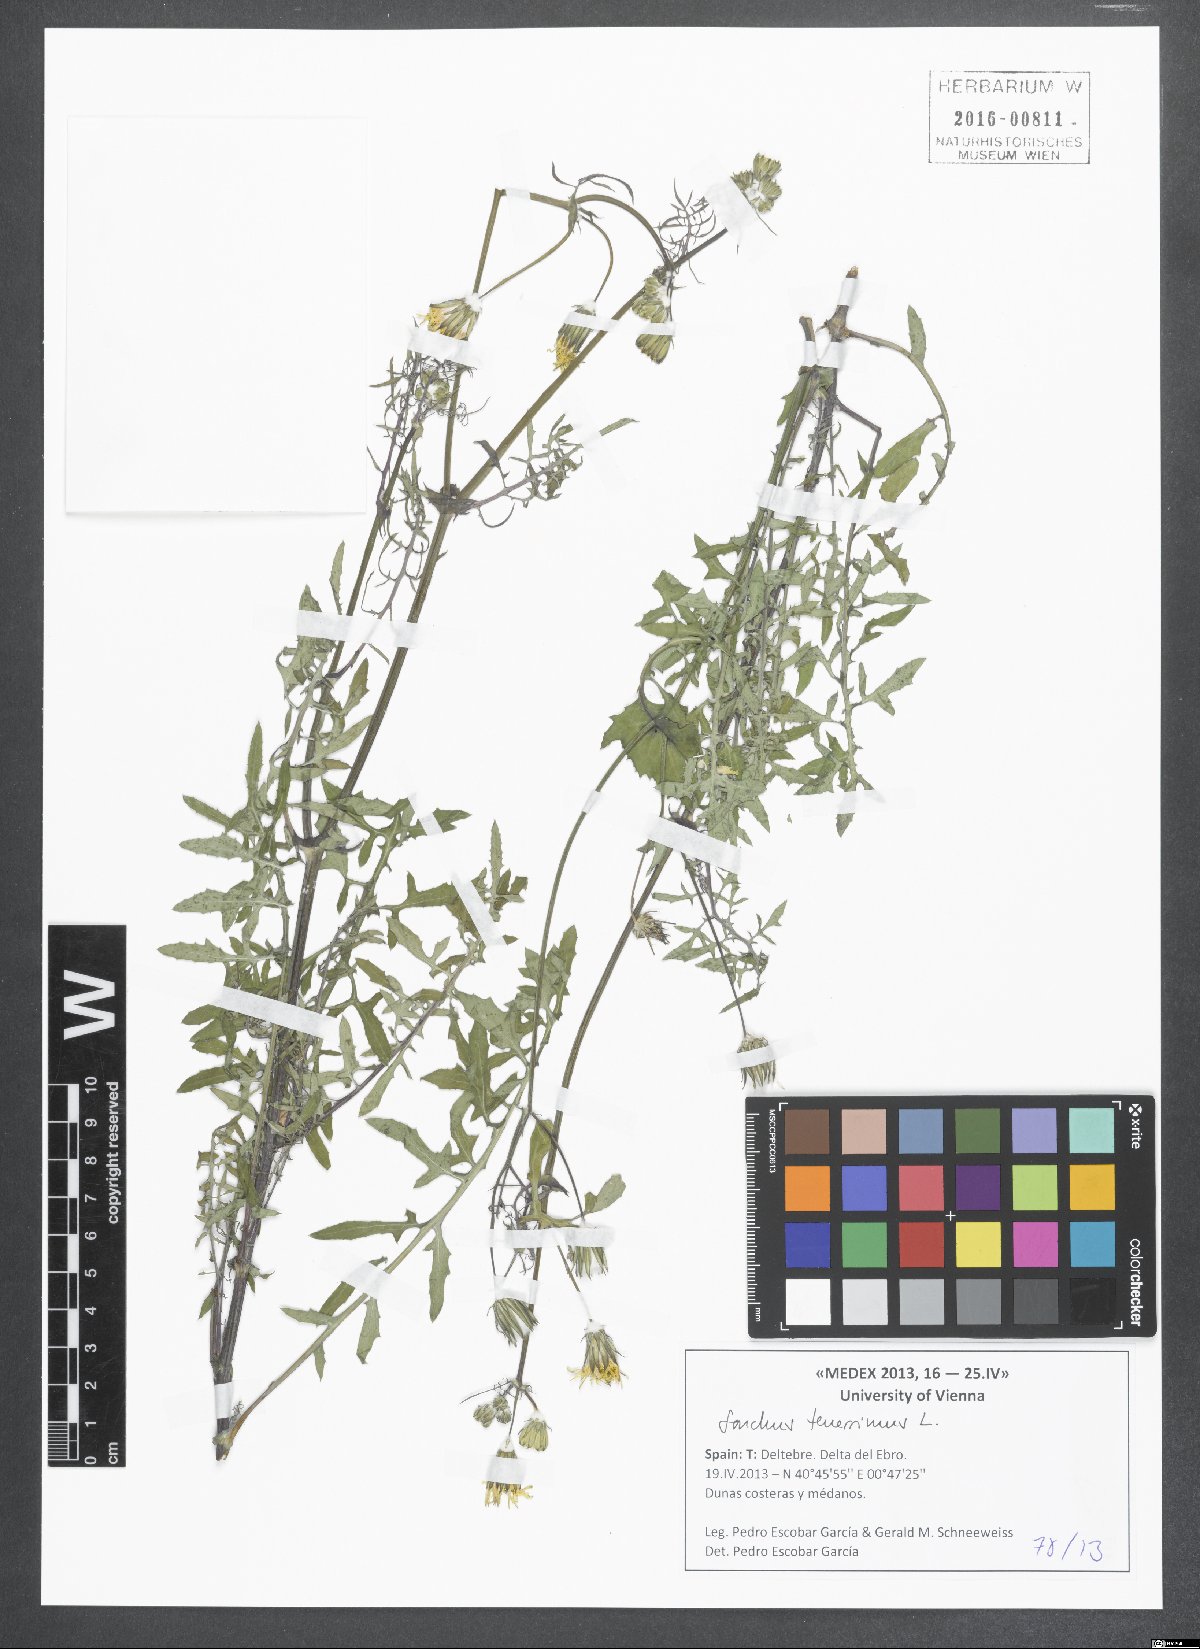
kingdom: Plantae
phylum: Tracheophyta
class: Magnoliopsida
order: Asterales
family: Asteraceae
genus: Sonchus
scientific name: Sonchus tenerrimus
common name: Clammy sowthistle
